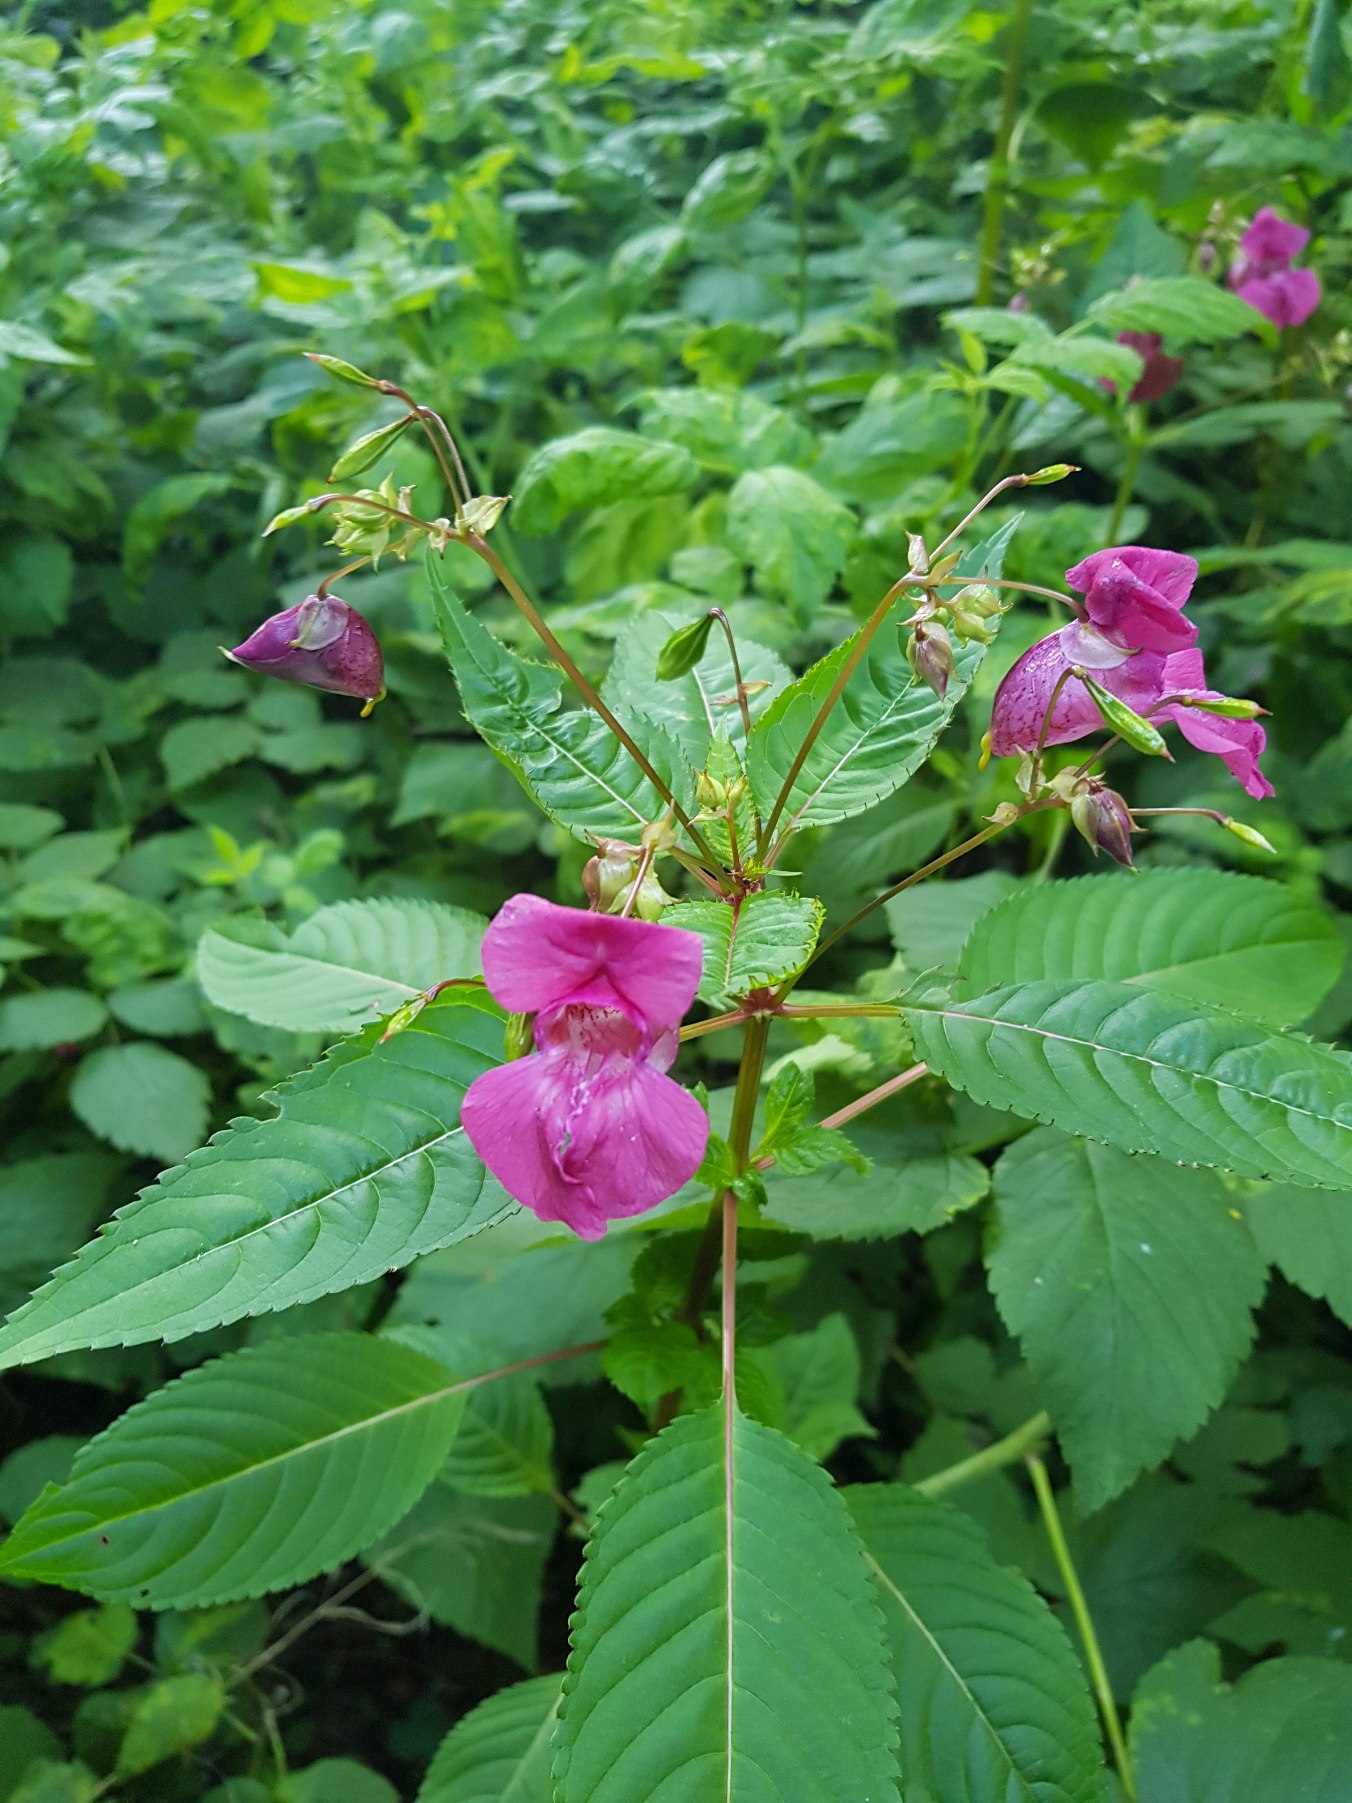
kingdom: Plantae
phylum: Tracheophyta
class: Magnoliopsida
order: Ericales
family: Balsaminaceae
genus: Impatiens
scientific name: Impatiens glandulifera
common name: Kæmpe-balsamin
